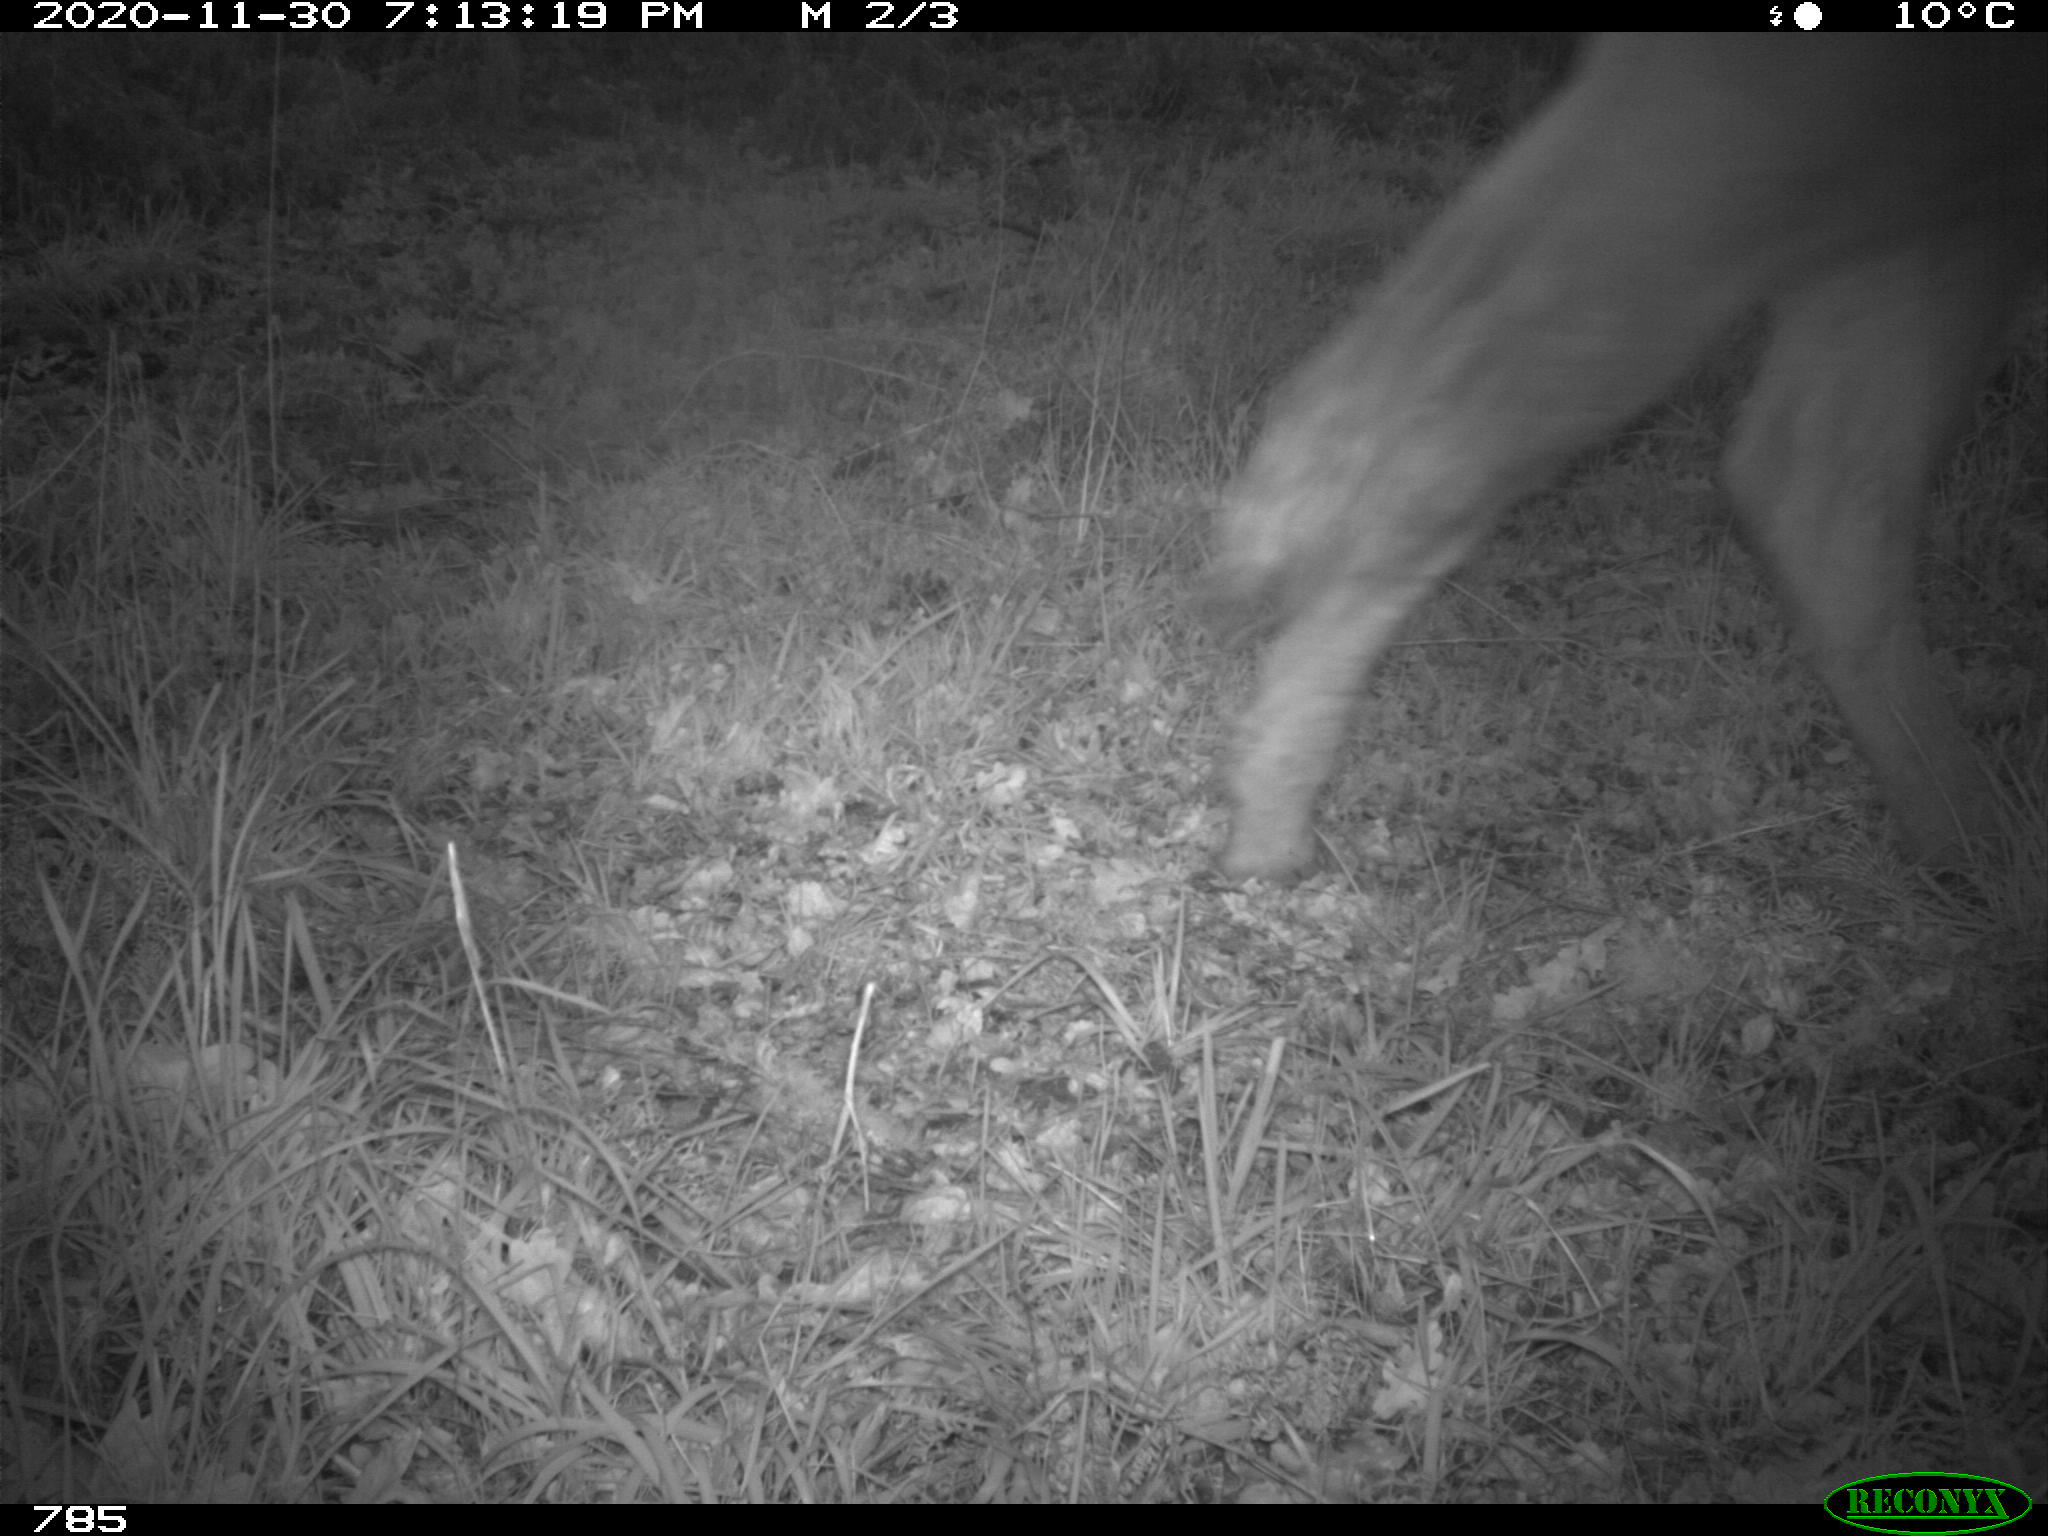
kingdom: Animalia
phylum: Chordata
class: Mammalia
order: Artiodactyla
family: Bovidae
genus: Bos
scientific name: Bos taurus
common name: Domesticated cattle
